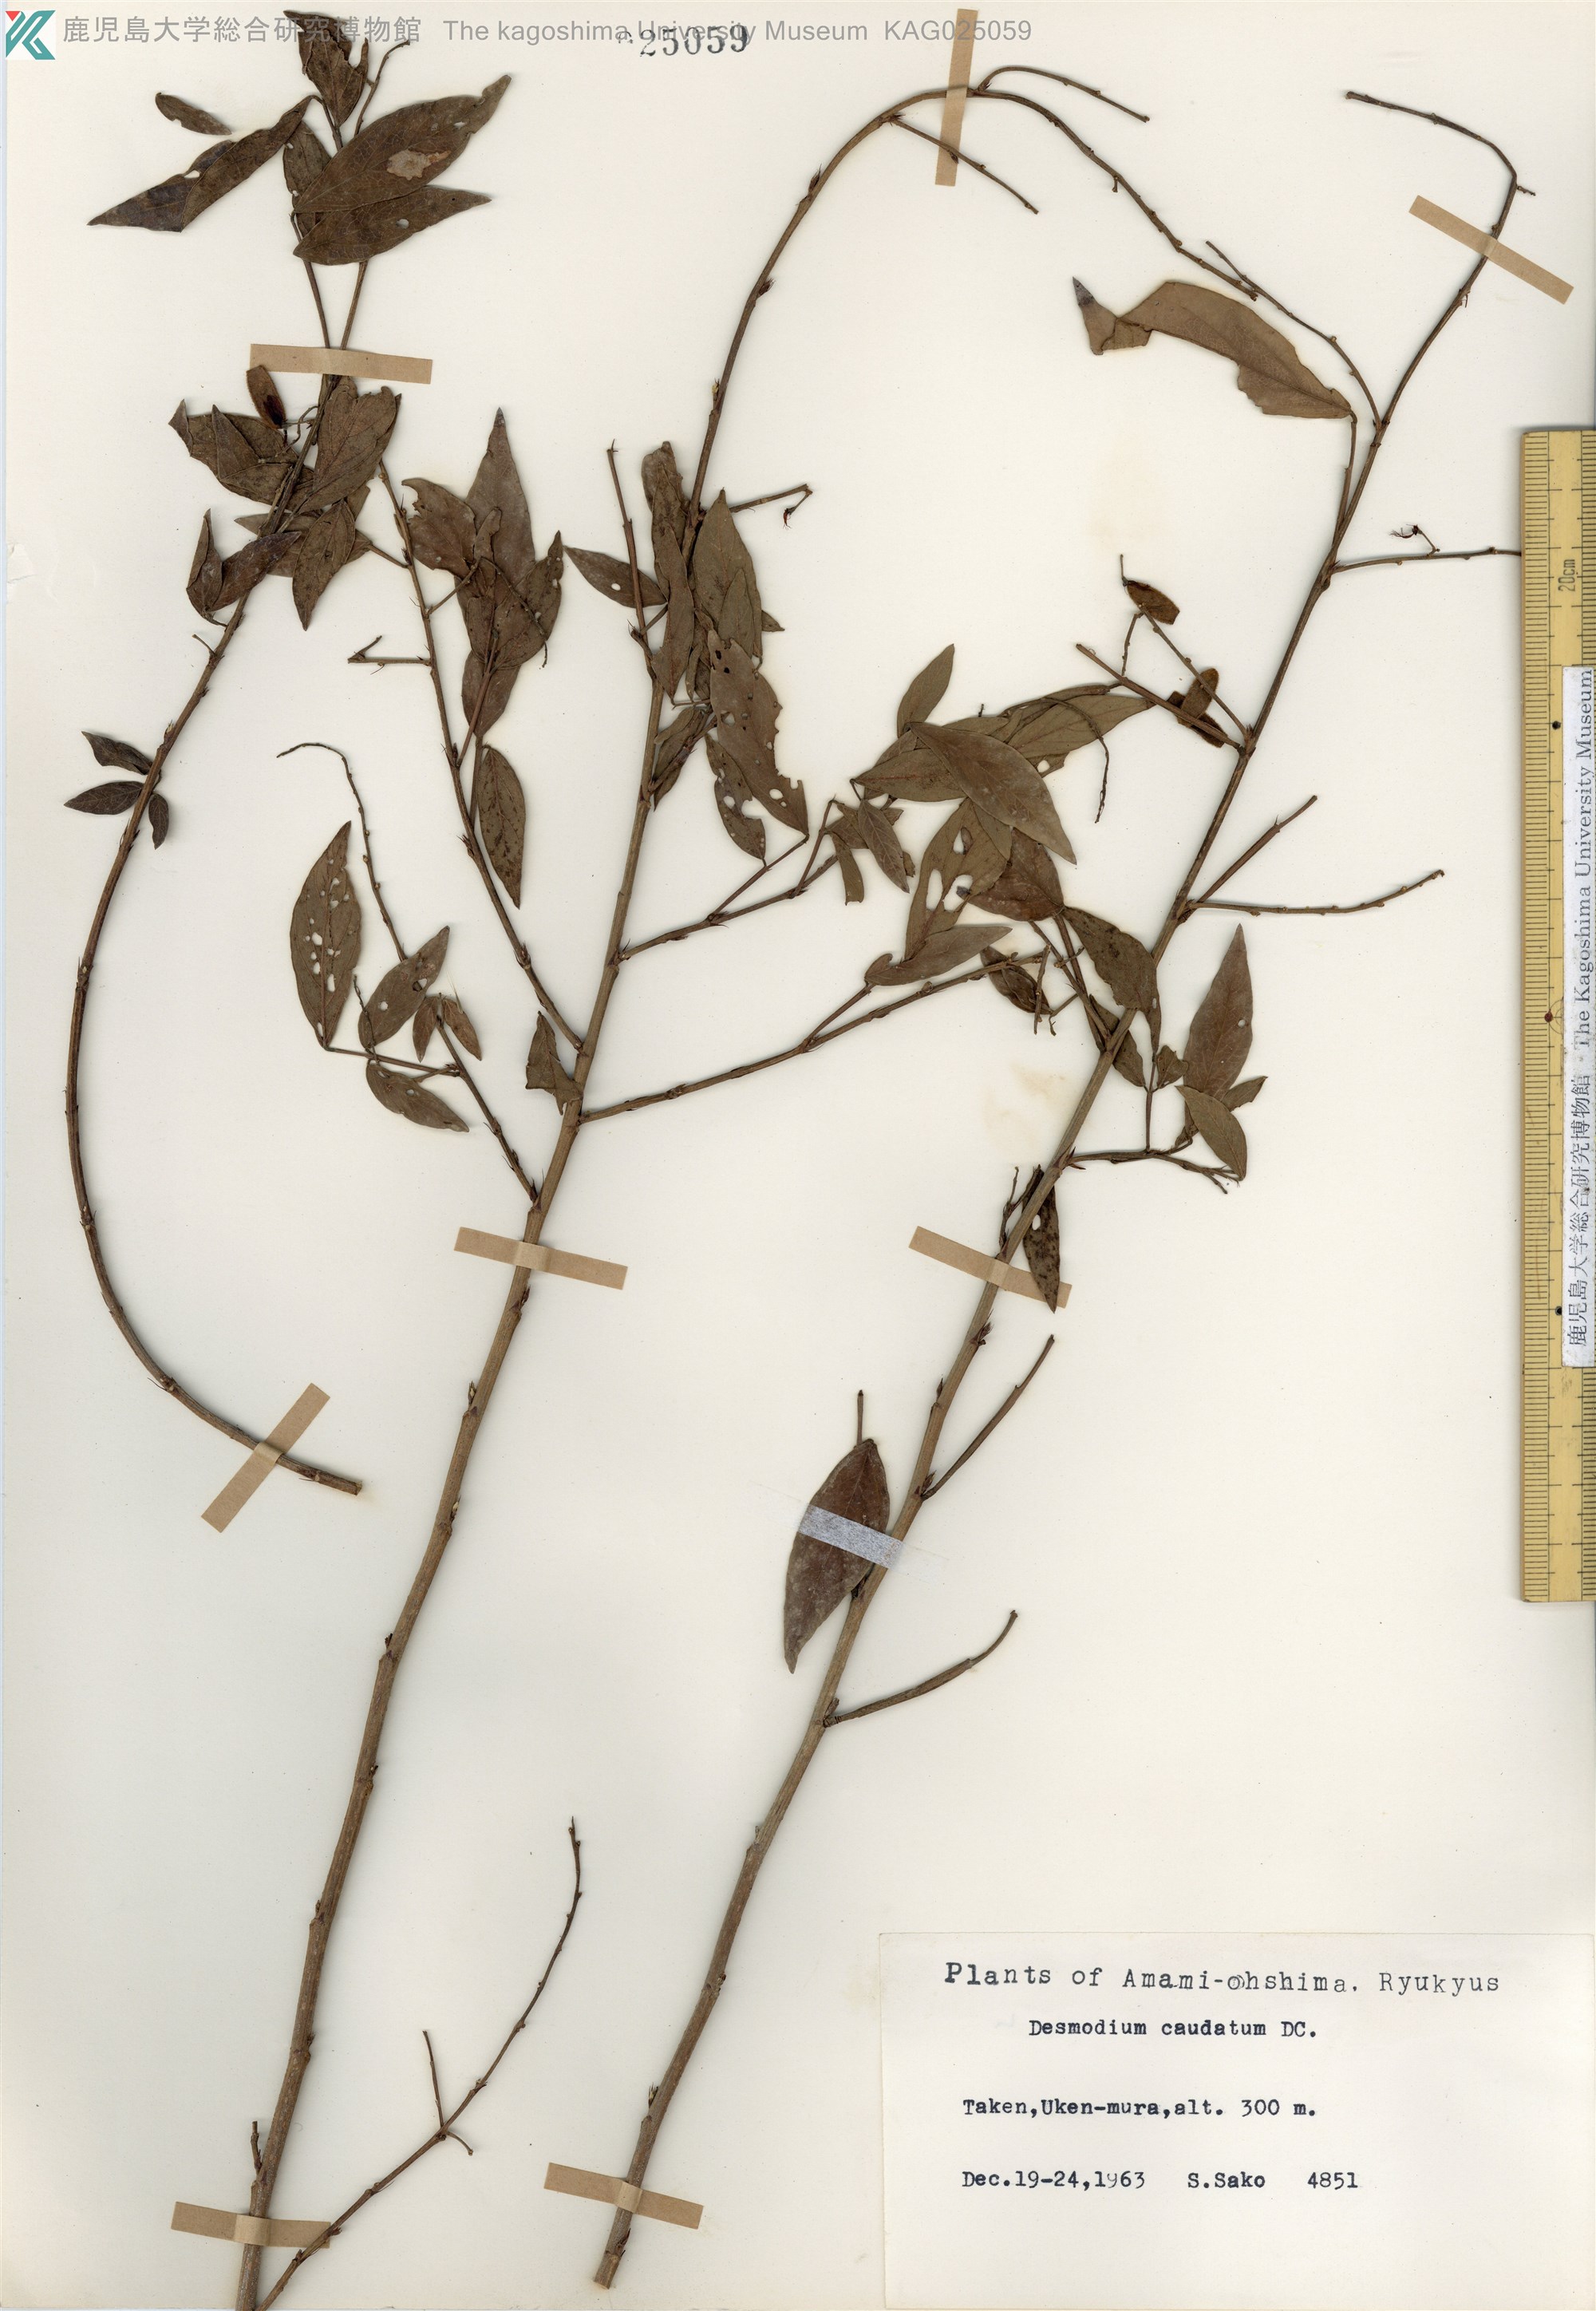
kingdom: Plantae
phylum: Tracheophyta
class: Magnoliopsida
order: Fabales
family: Fabaceae
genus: Ohwia
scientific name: Ohwia caudata
